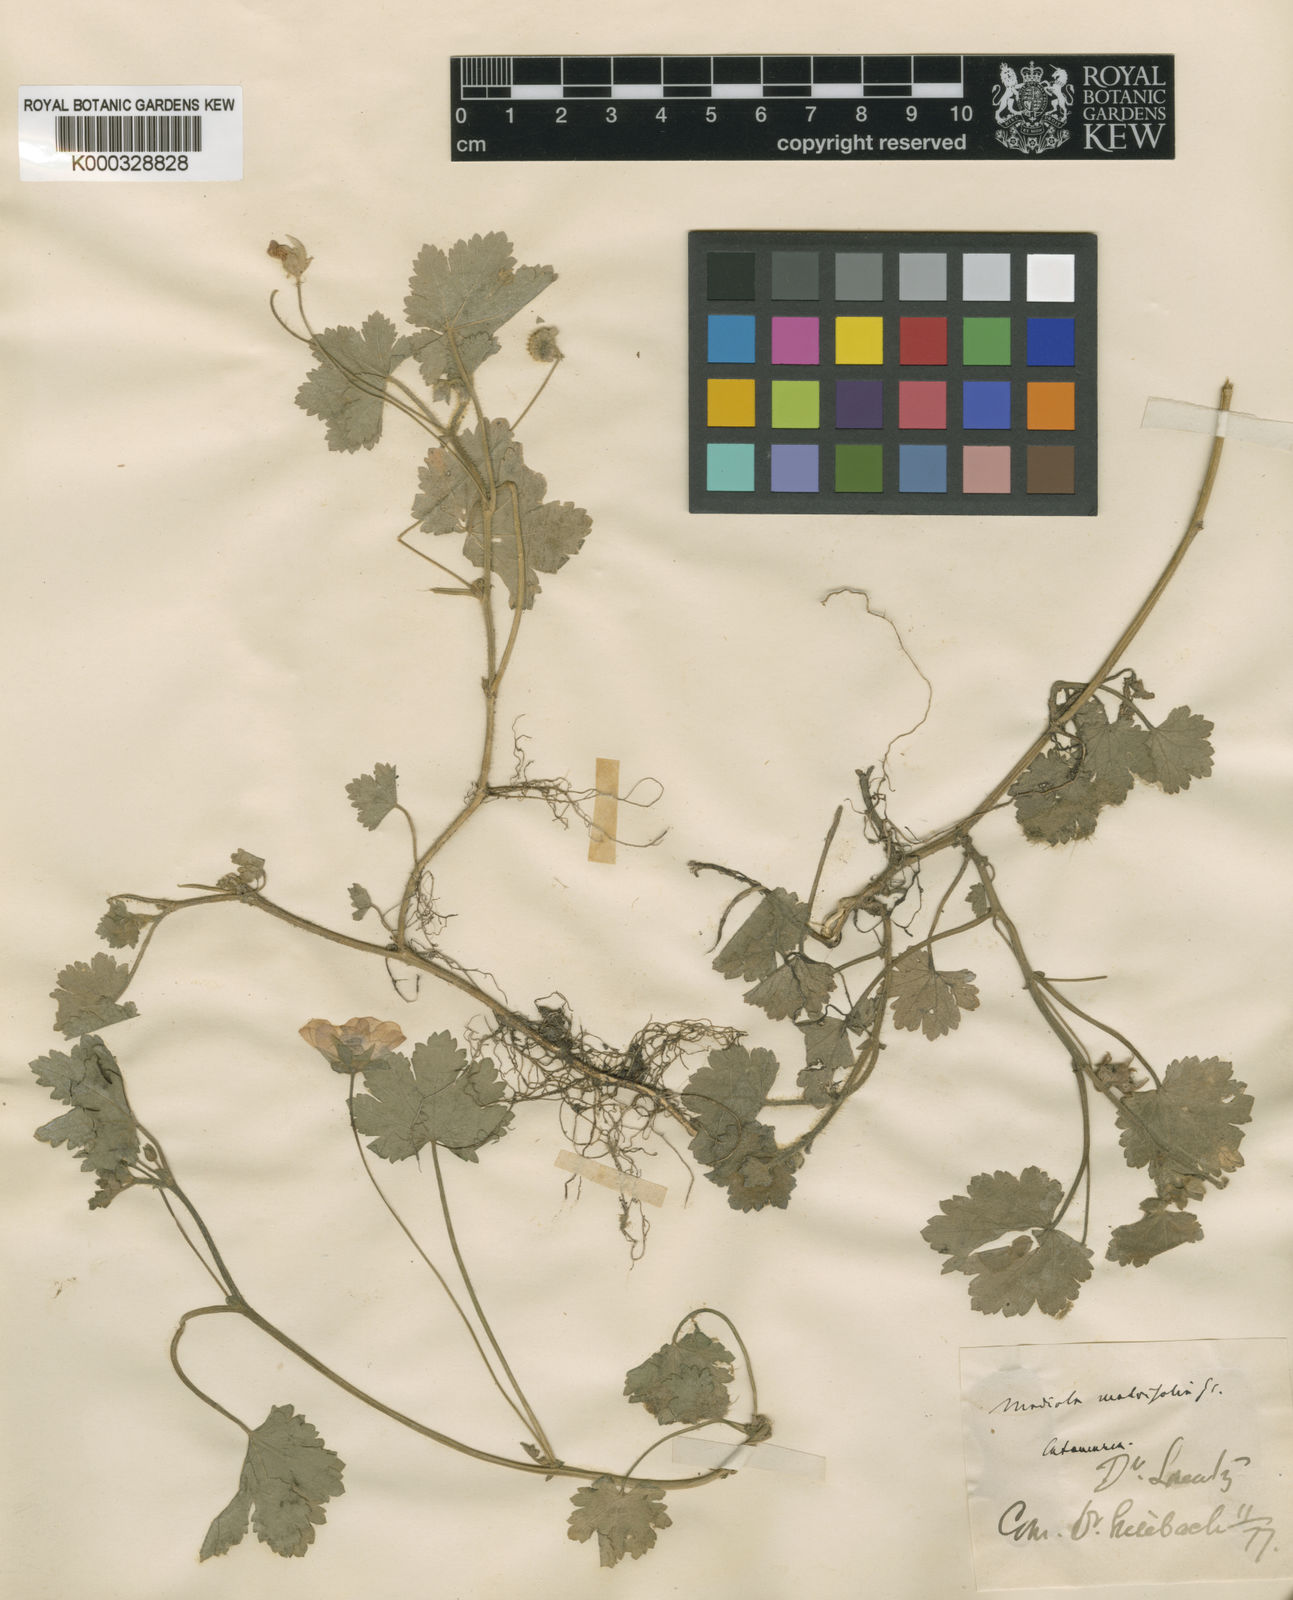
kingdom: Plantae
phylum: Tracheophyta
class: Magnoliopsida
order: Malvales
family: Malvaceae
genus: Modiolastrum
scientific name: Modiolastrum malvifolium
